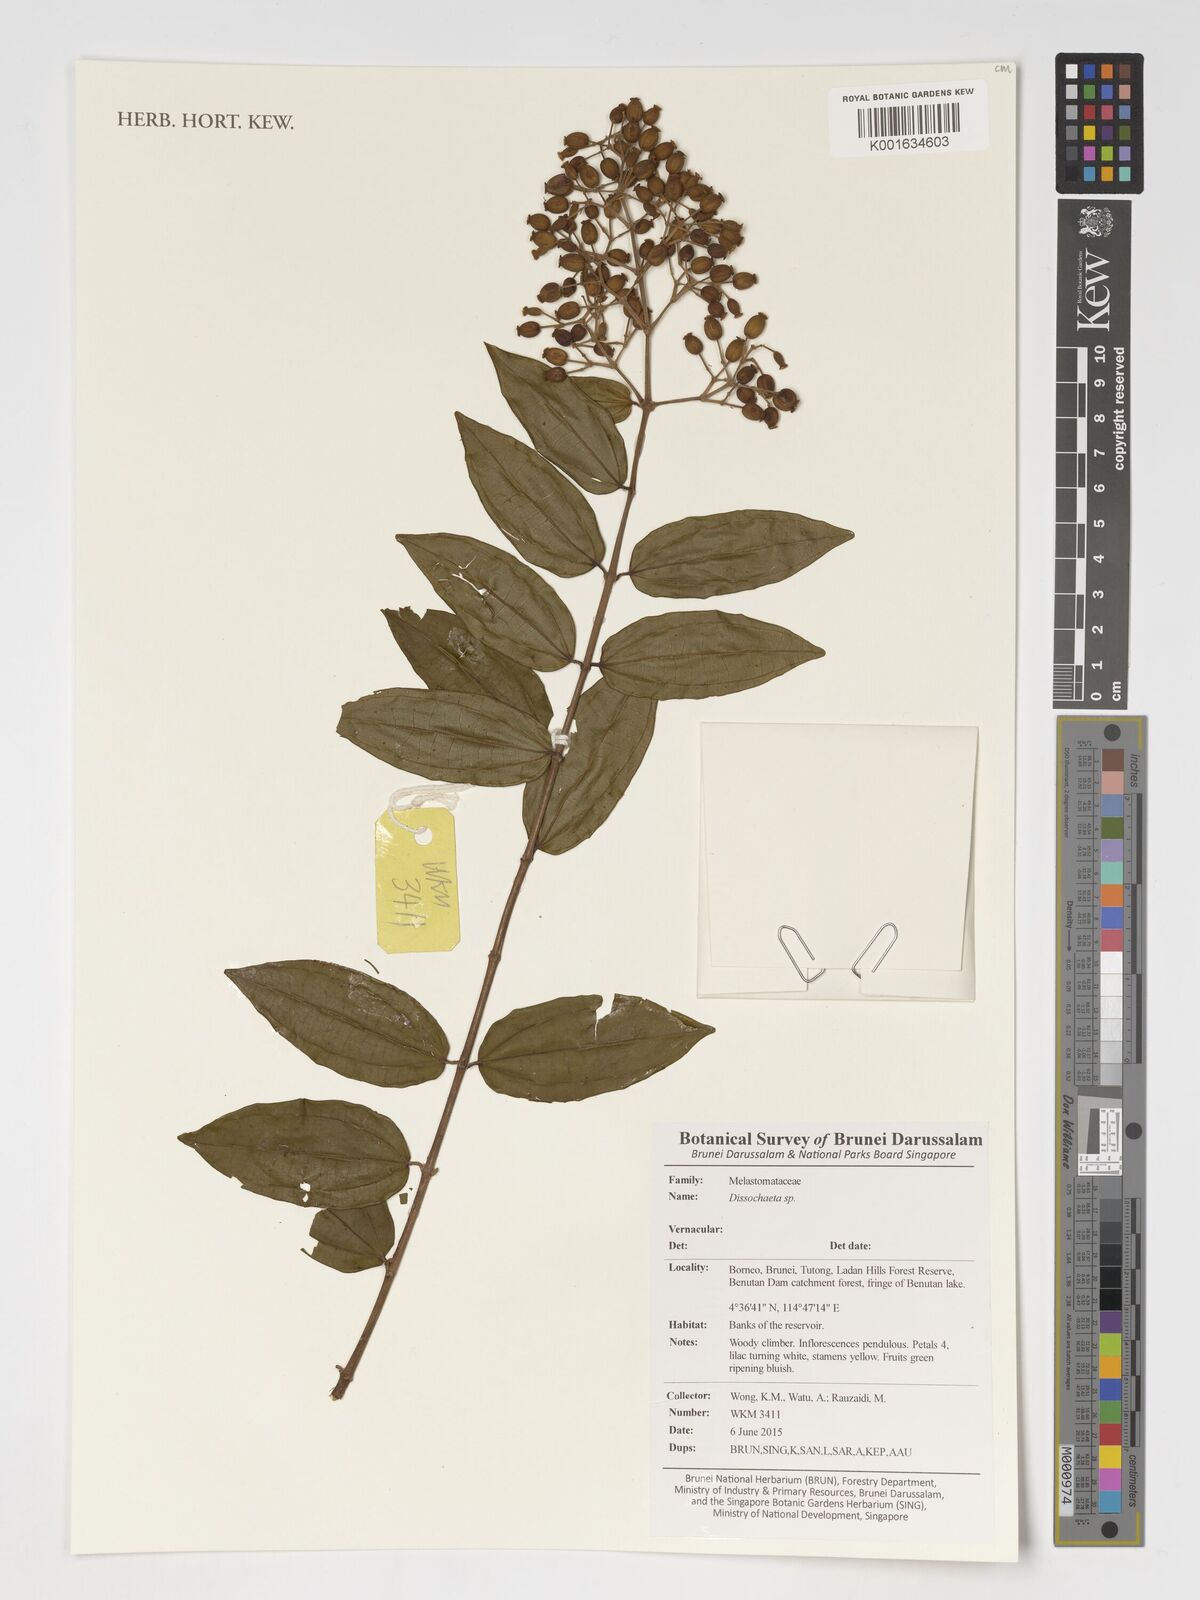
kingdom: Plantae
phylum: Tracheophyta
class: Magnoliopsida
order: Myrtales
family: Melastomataceae
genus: Dissochaeta
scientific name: Dissochaeta
